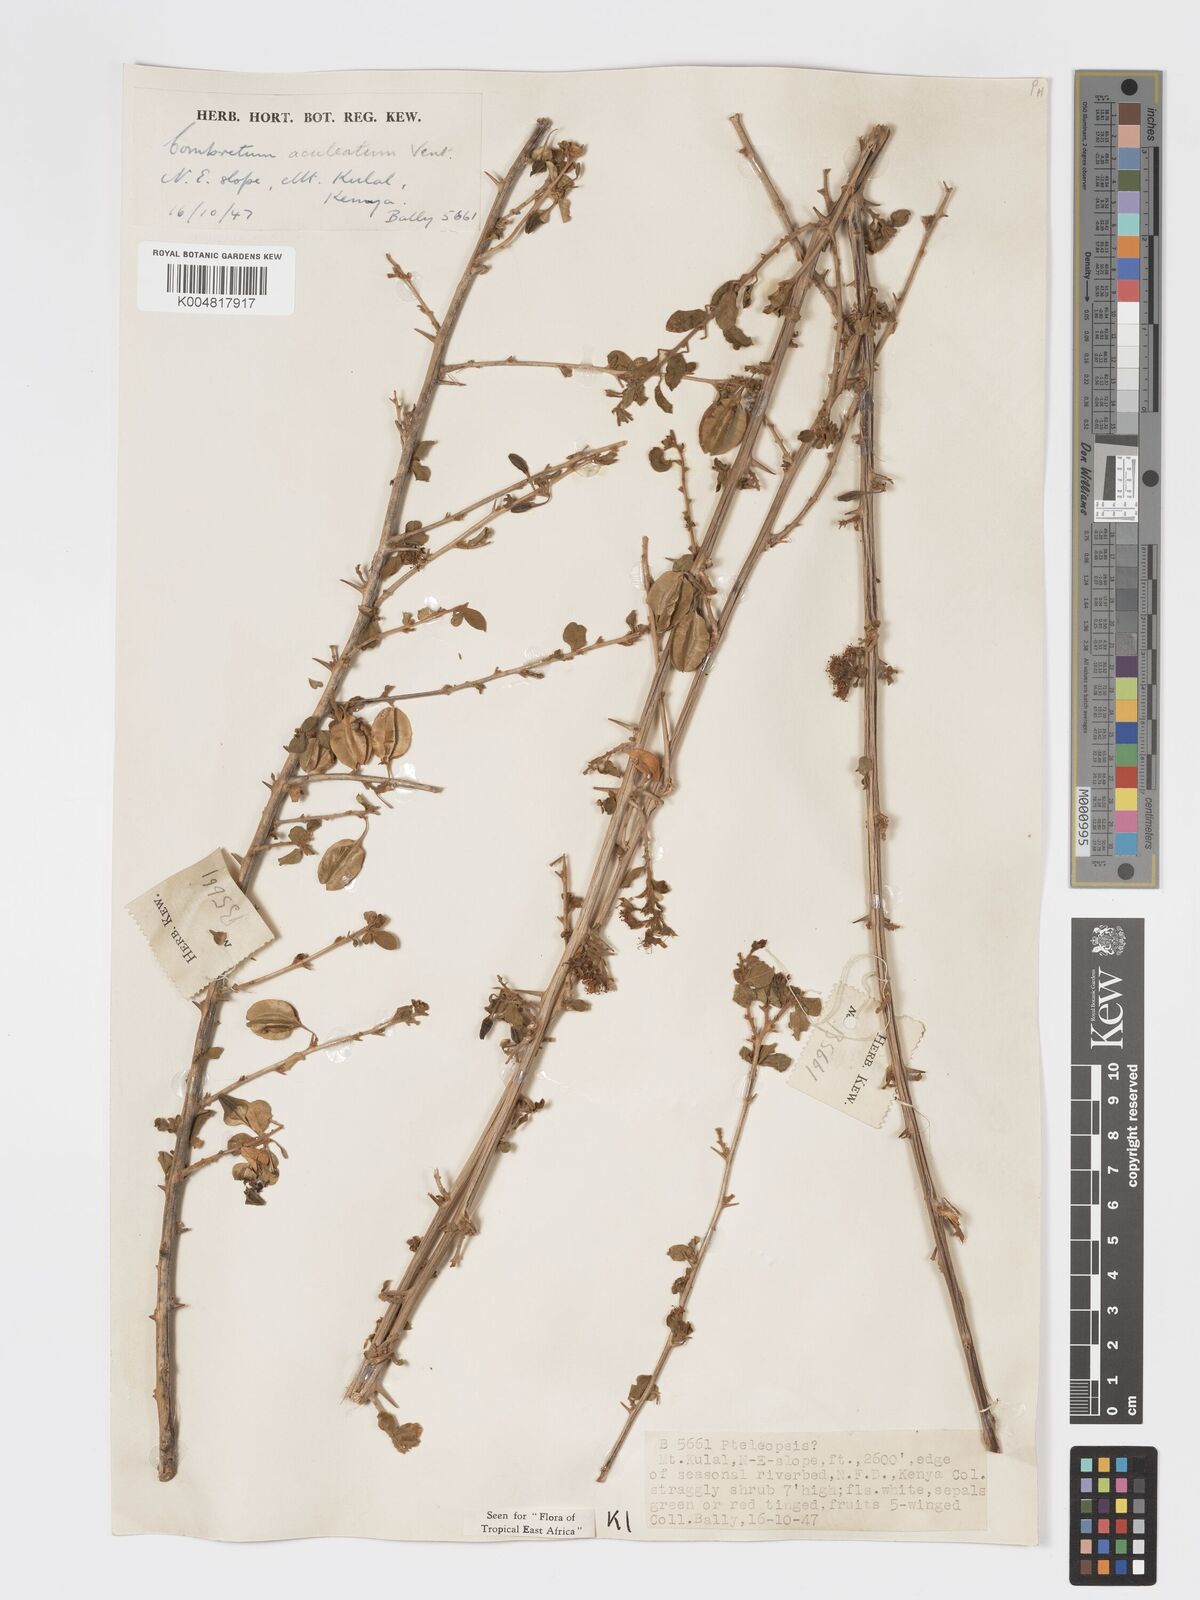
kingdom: Plantae
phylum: Tracheophyta
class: Magnoliopsida
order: Myrtales
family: Combretaceae
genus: Combretum
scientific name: Combretum aculeatum
